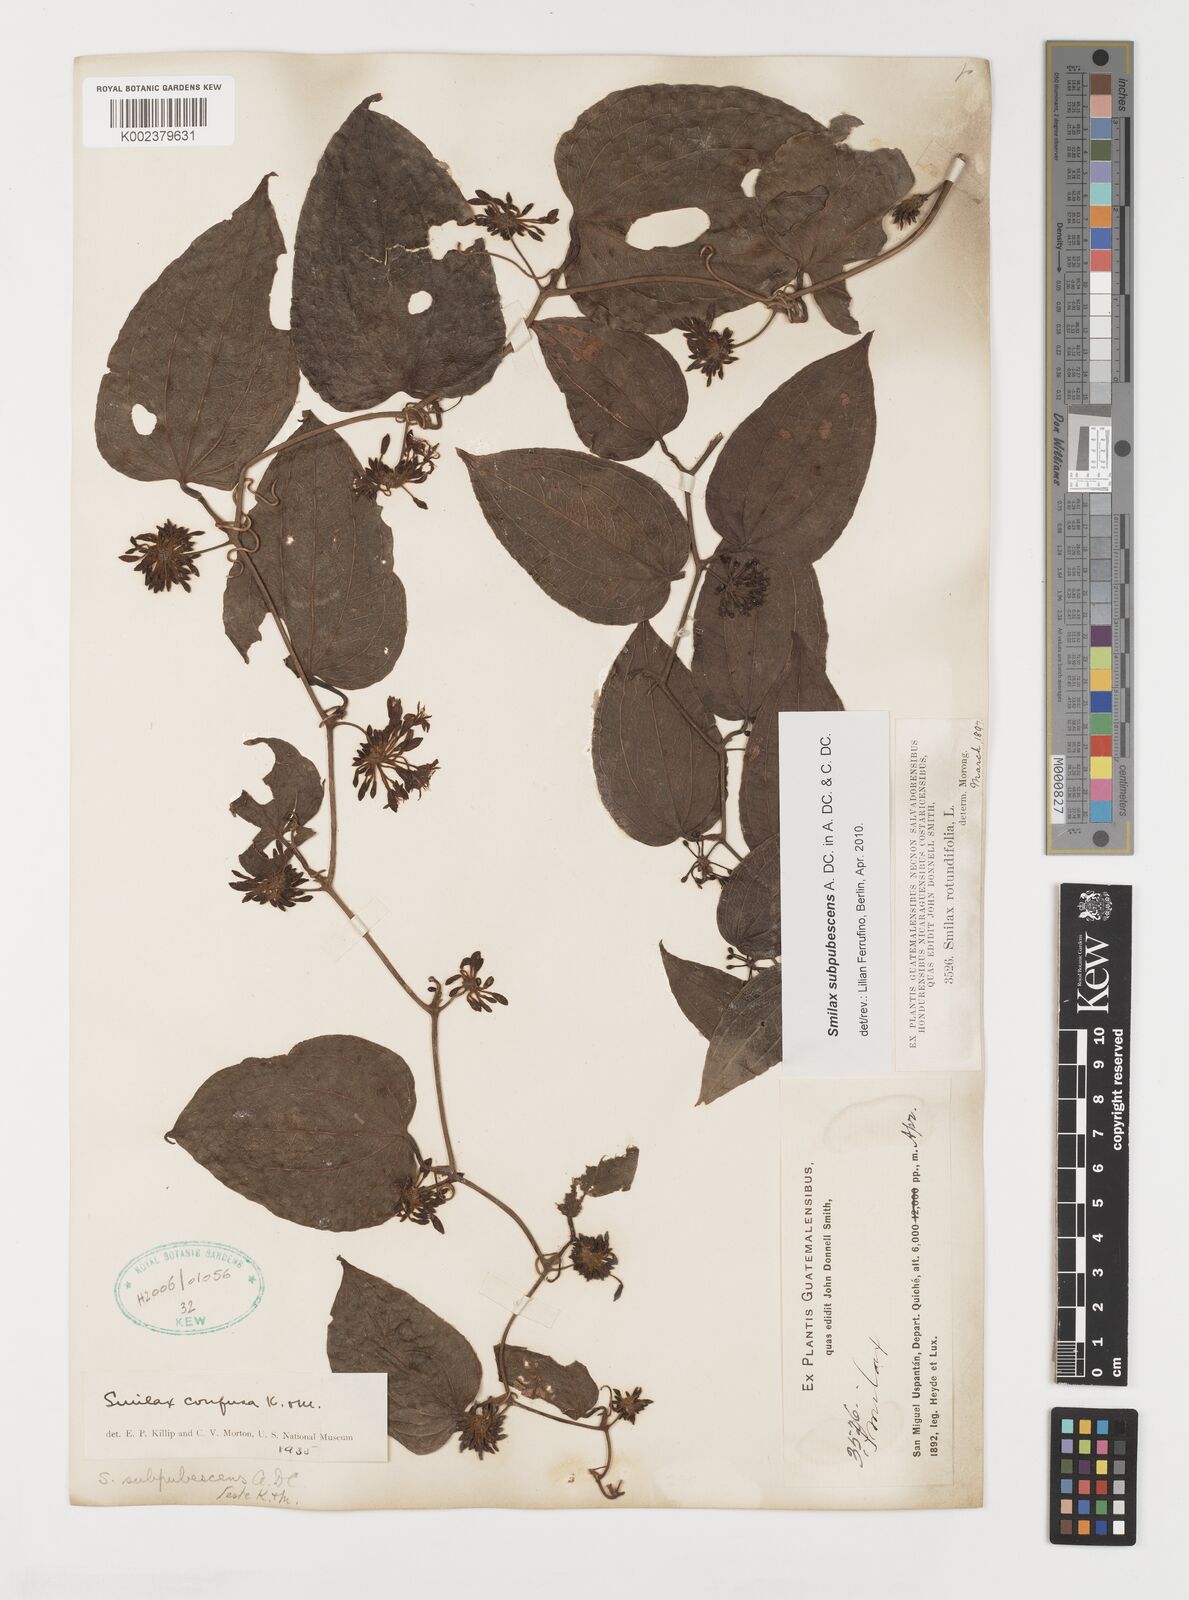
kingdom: Plantae
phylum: Tracheophyta
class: Liliopsida
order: Liliales
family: Smilacaceae
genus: Smilax
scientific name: Smilax subpubescens
